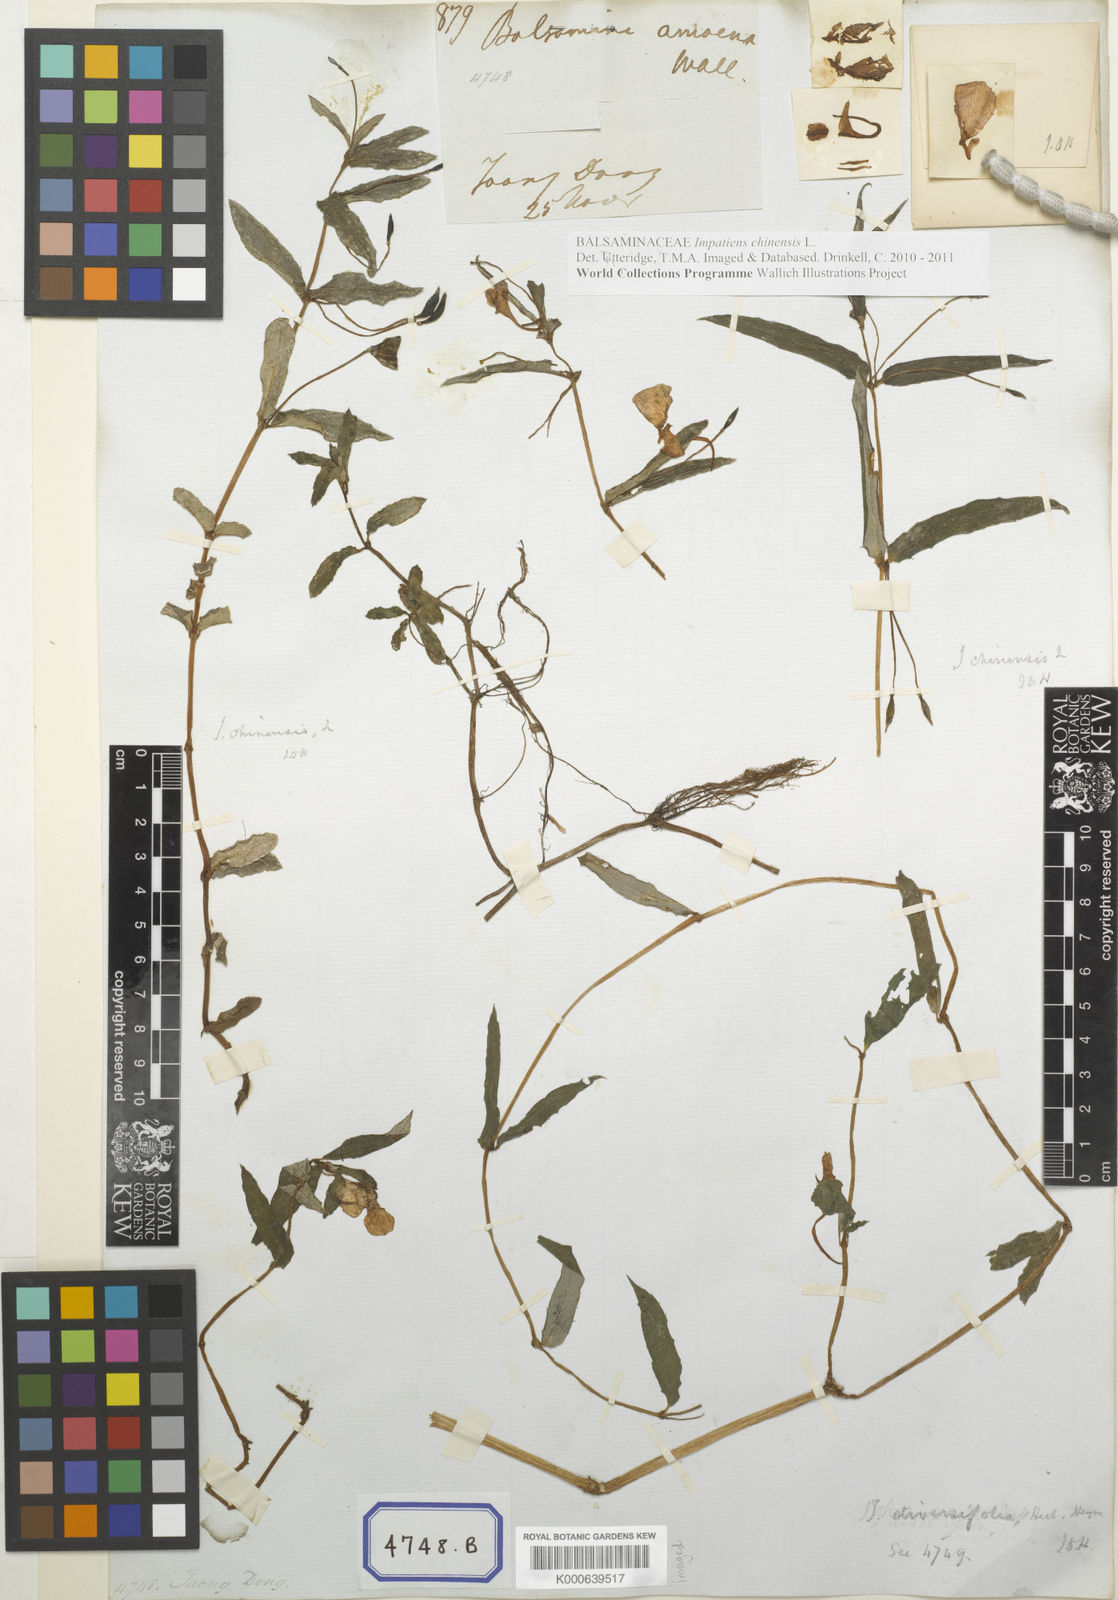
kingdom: Plantae
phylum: Tracheophyta
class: Magnoliopsida
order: Ericales
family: Balsaminaceae
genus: Impatiens
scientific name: Impatiens chinensis
